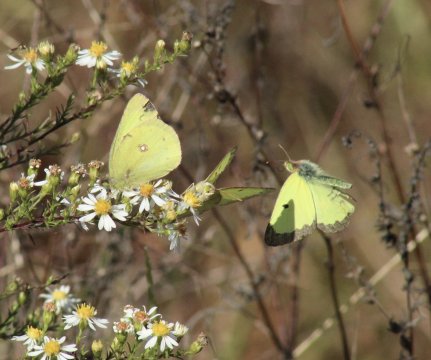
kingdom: Animalia
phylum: Arthropoda
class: Insecta
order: Lepidoptera
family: Pieridae
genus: Colias
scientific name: Colias philodice
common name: Clouded Sulphur
